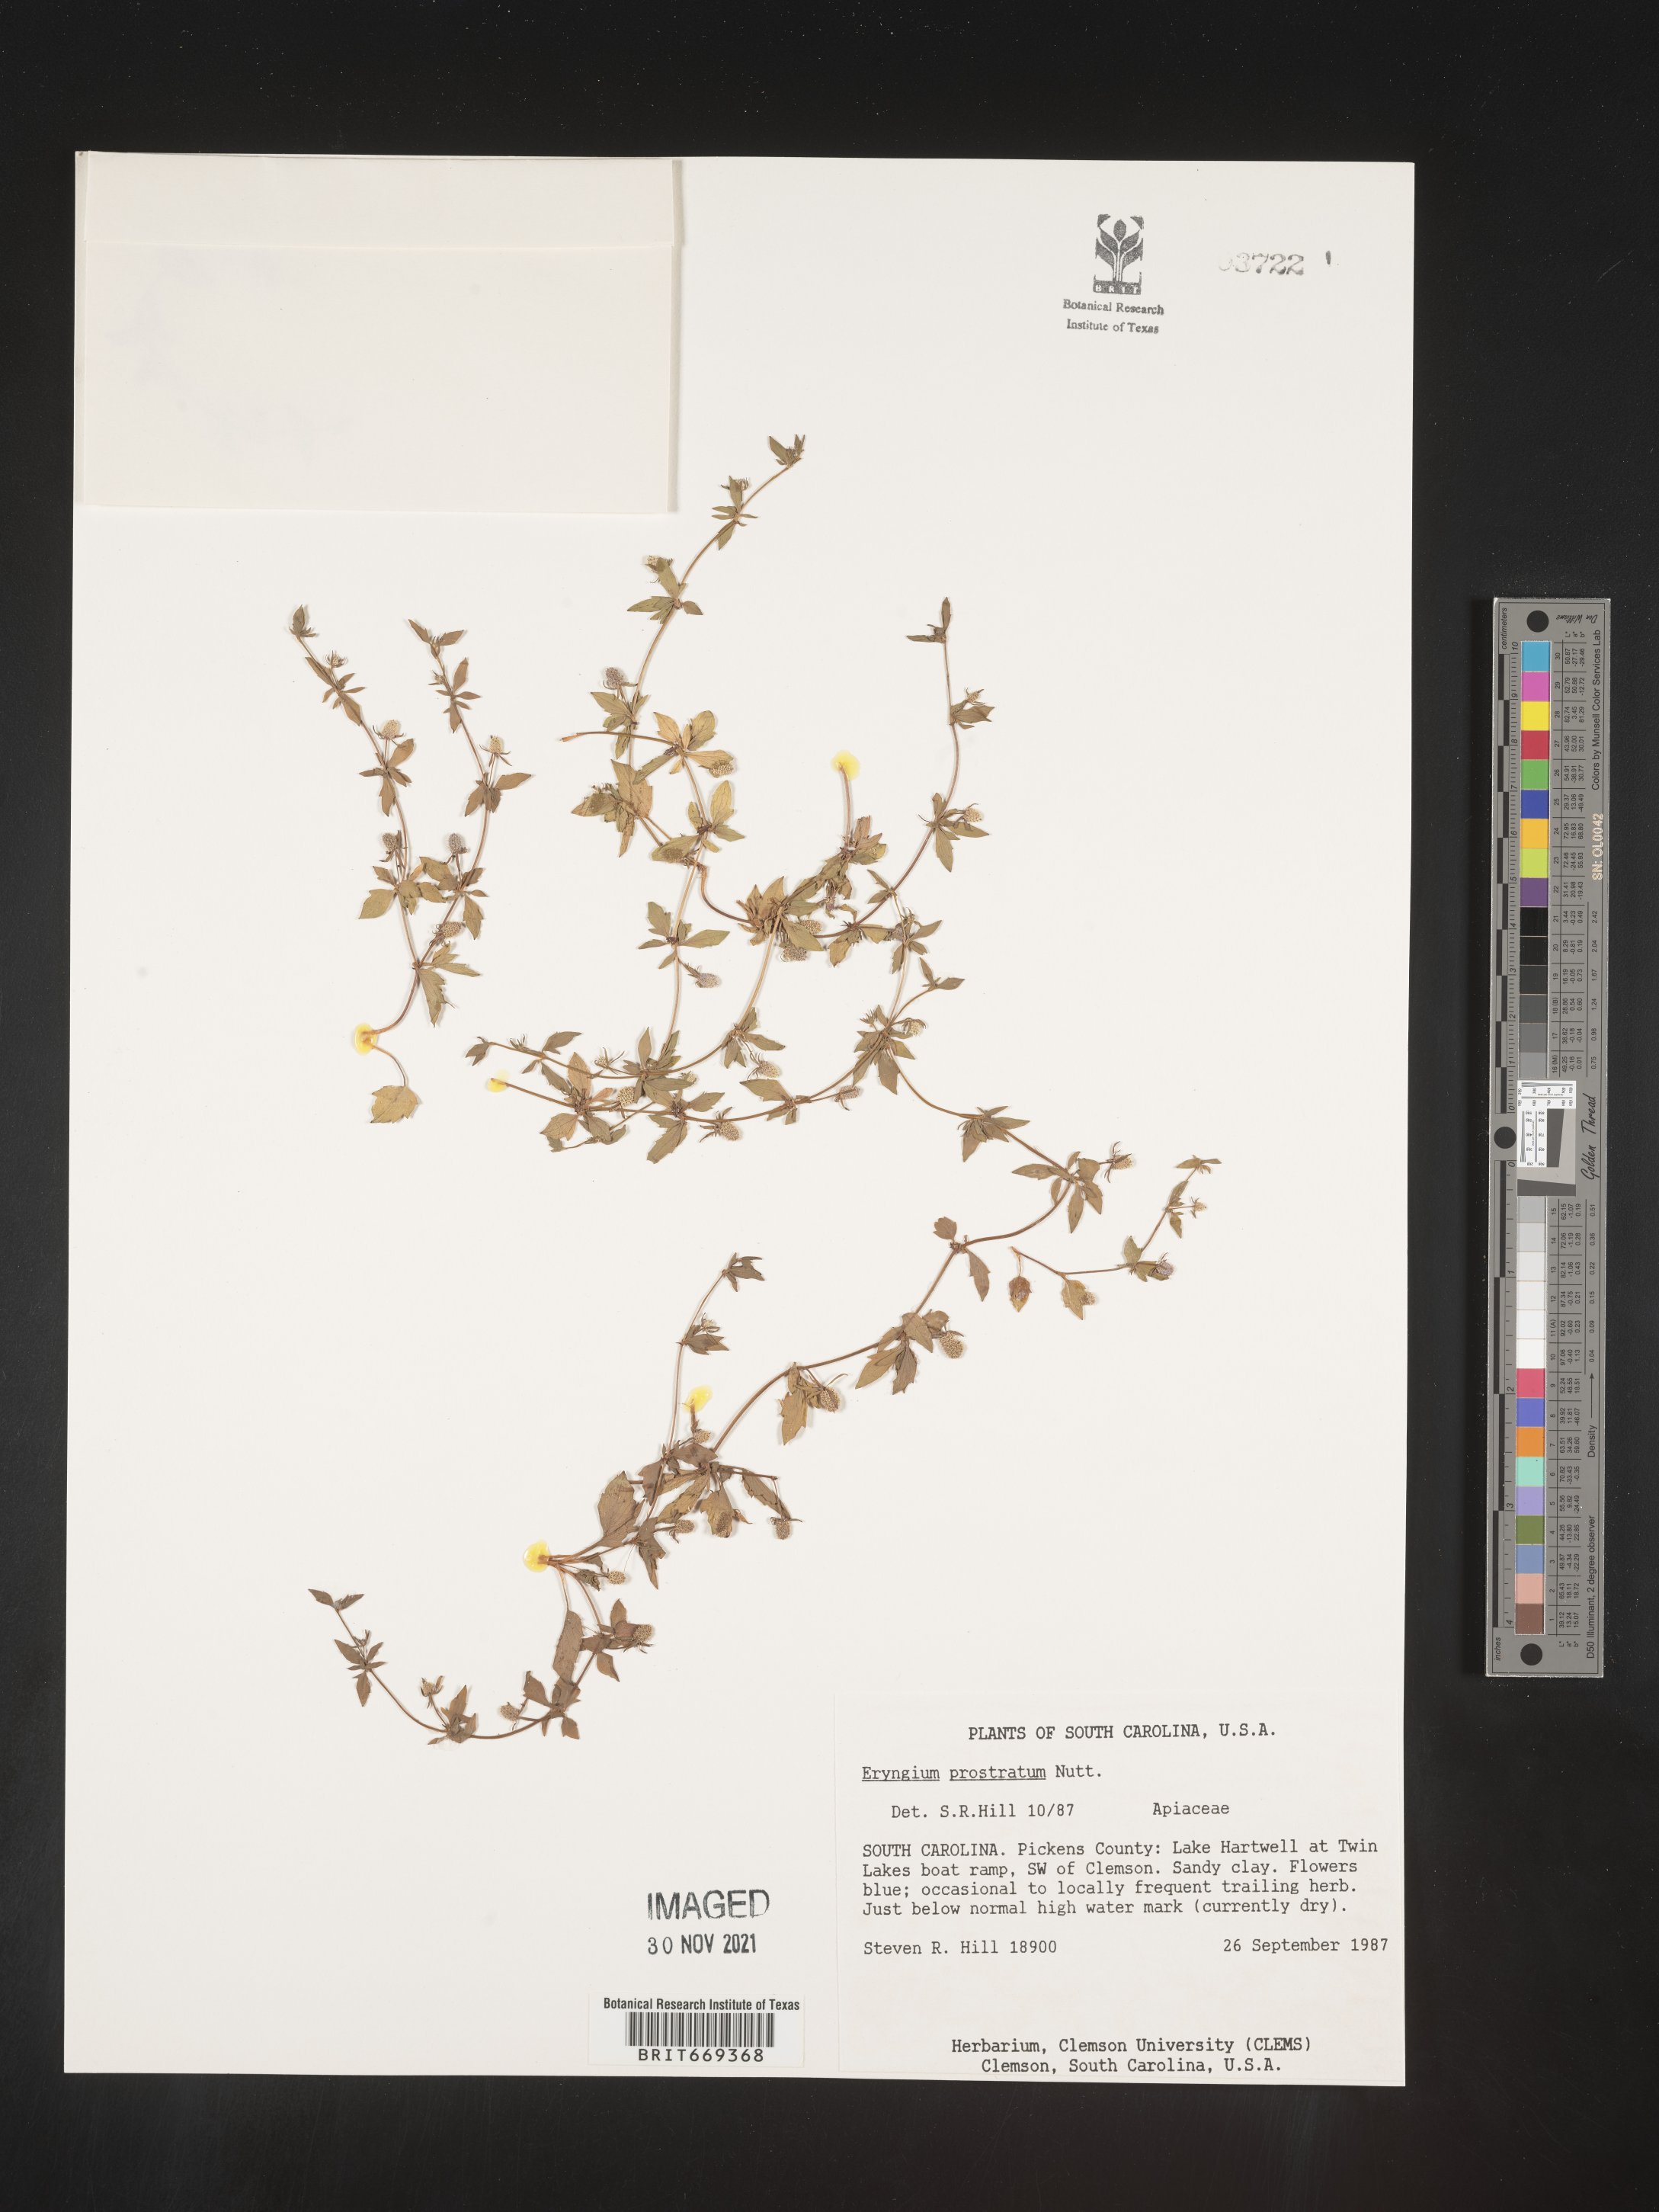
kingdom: Plantae
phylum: Tracheophyta
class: Magnoliopsida
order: Apiales
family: Apiaceae
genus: Eryngium
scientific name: Eryngium prostratum
